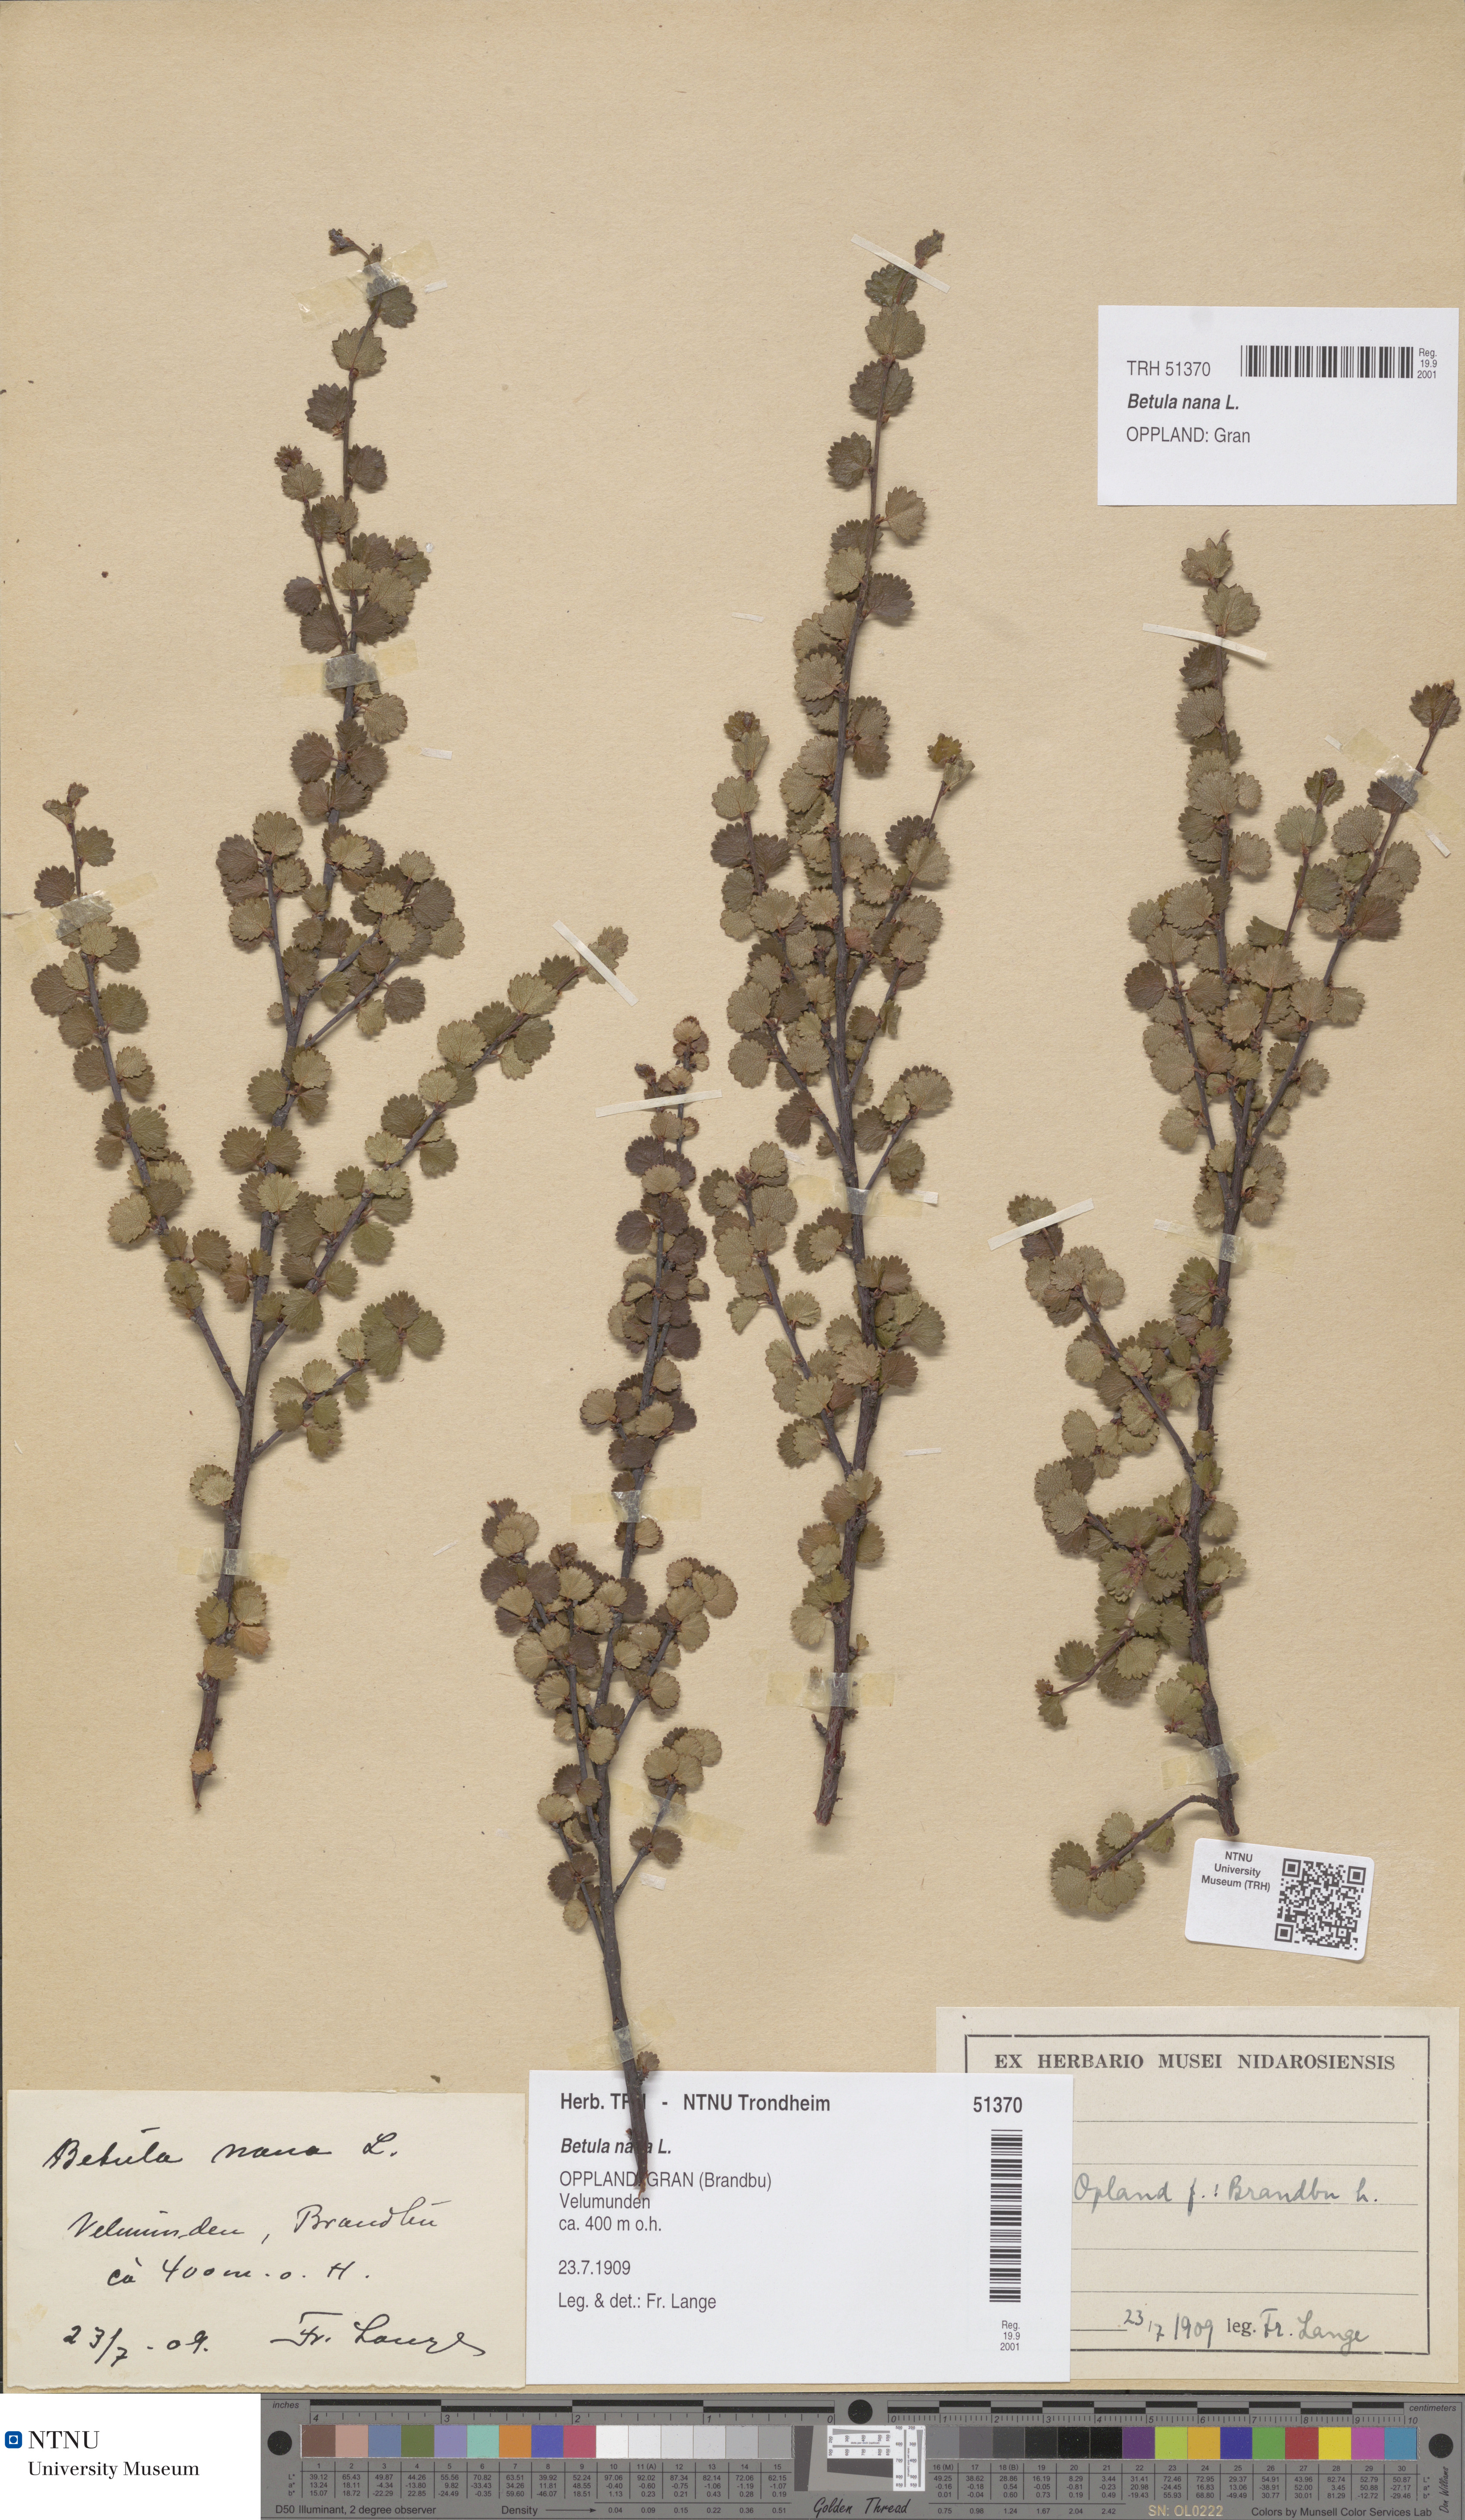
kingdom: Plantae
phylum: Tracheophyta
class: Magnoliopsida
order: Fagales
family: Betulaceae
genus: Betula
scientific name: Betula nana
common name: Arctic dwarf birch
